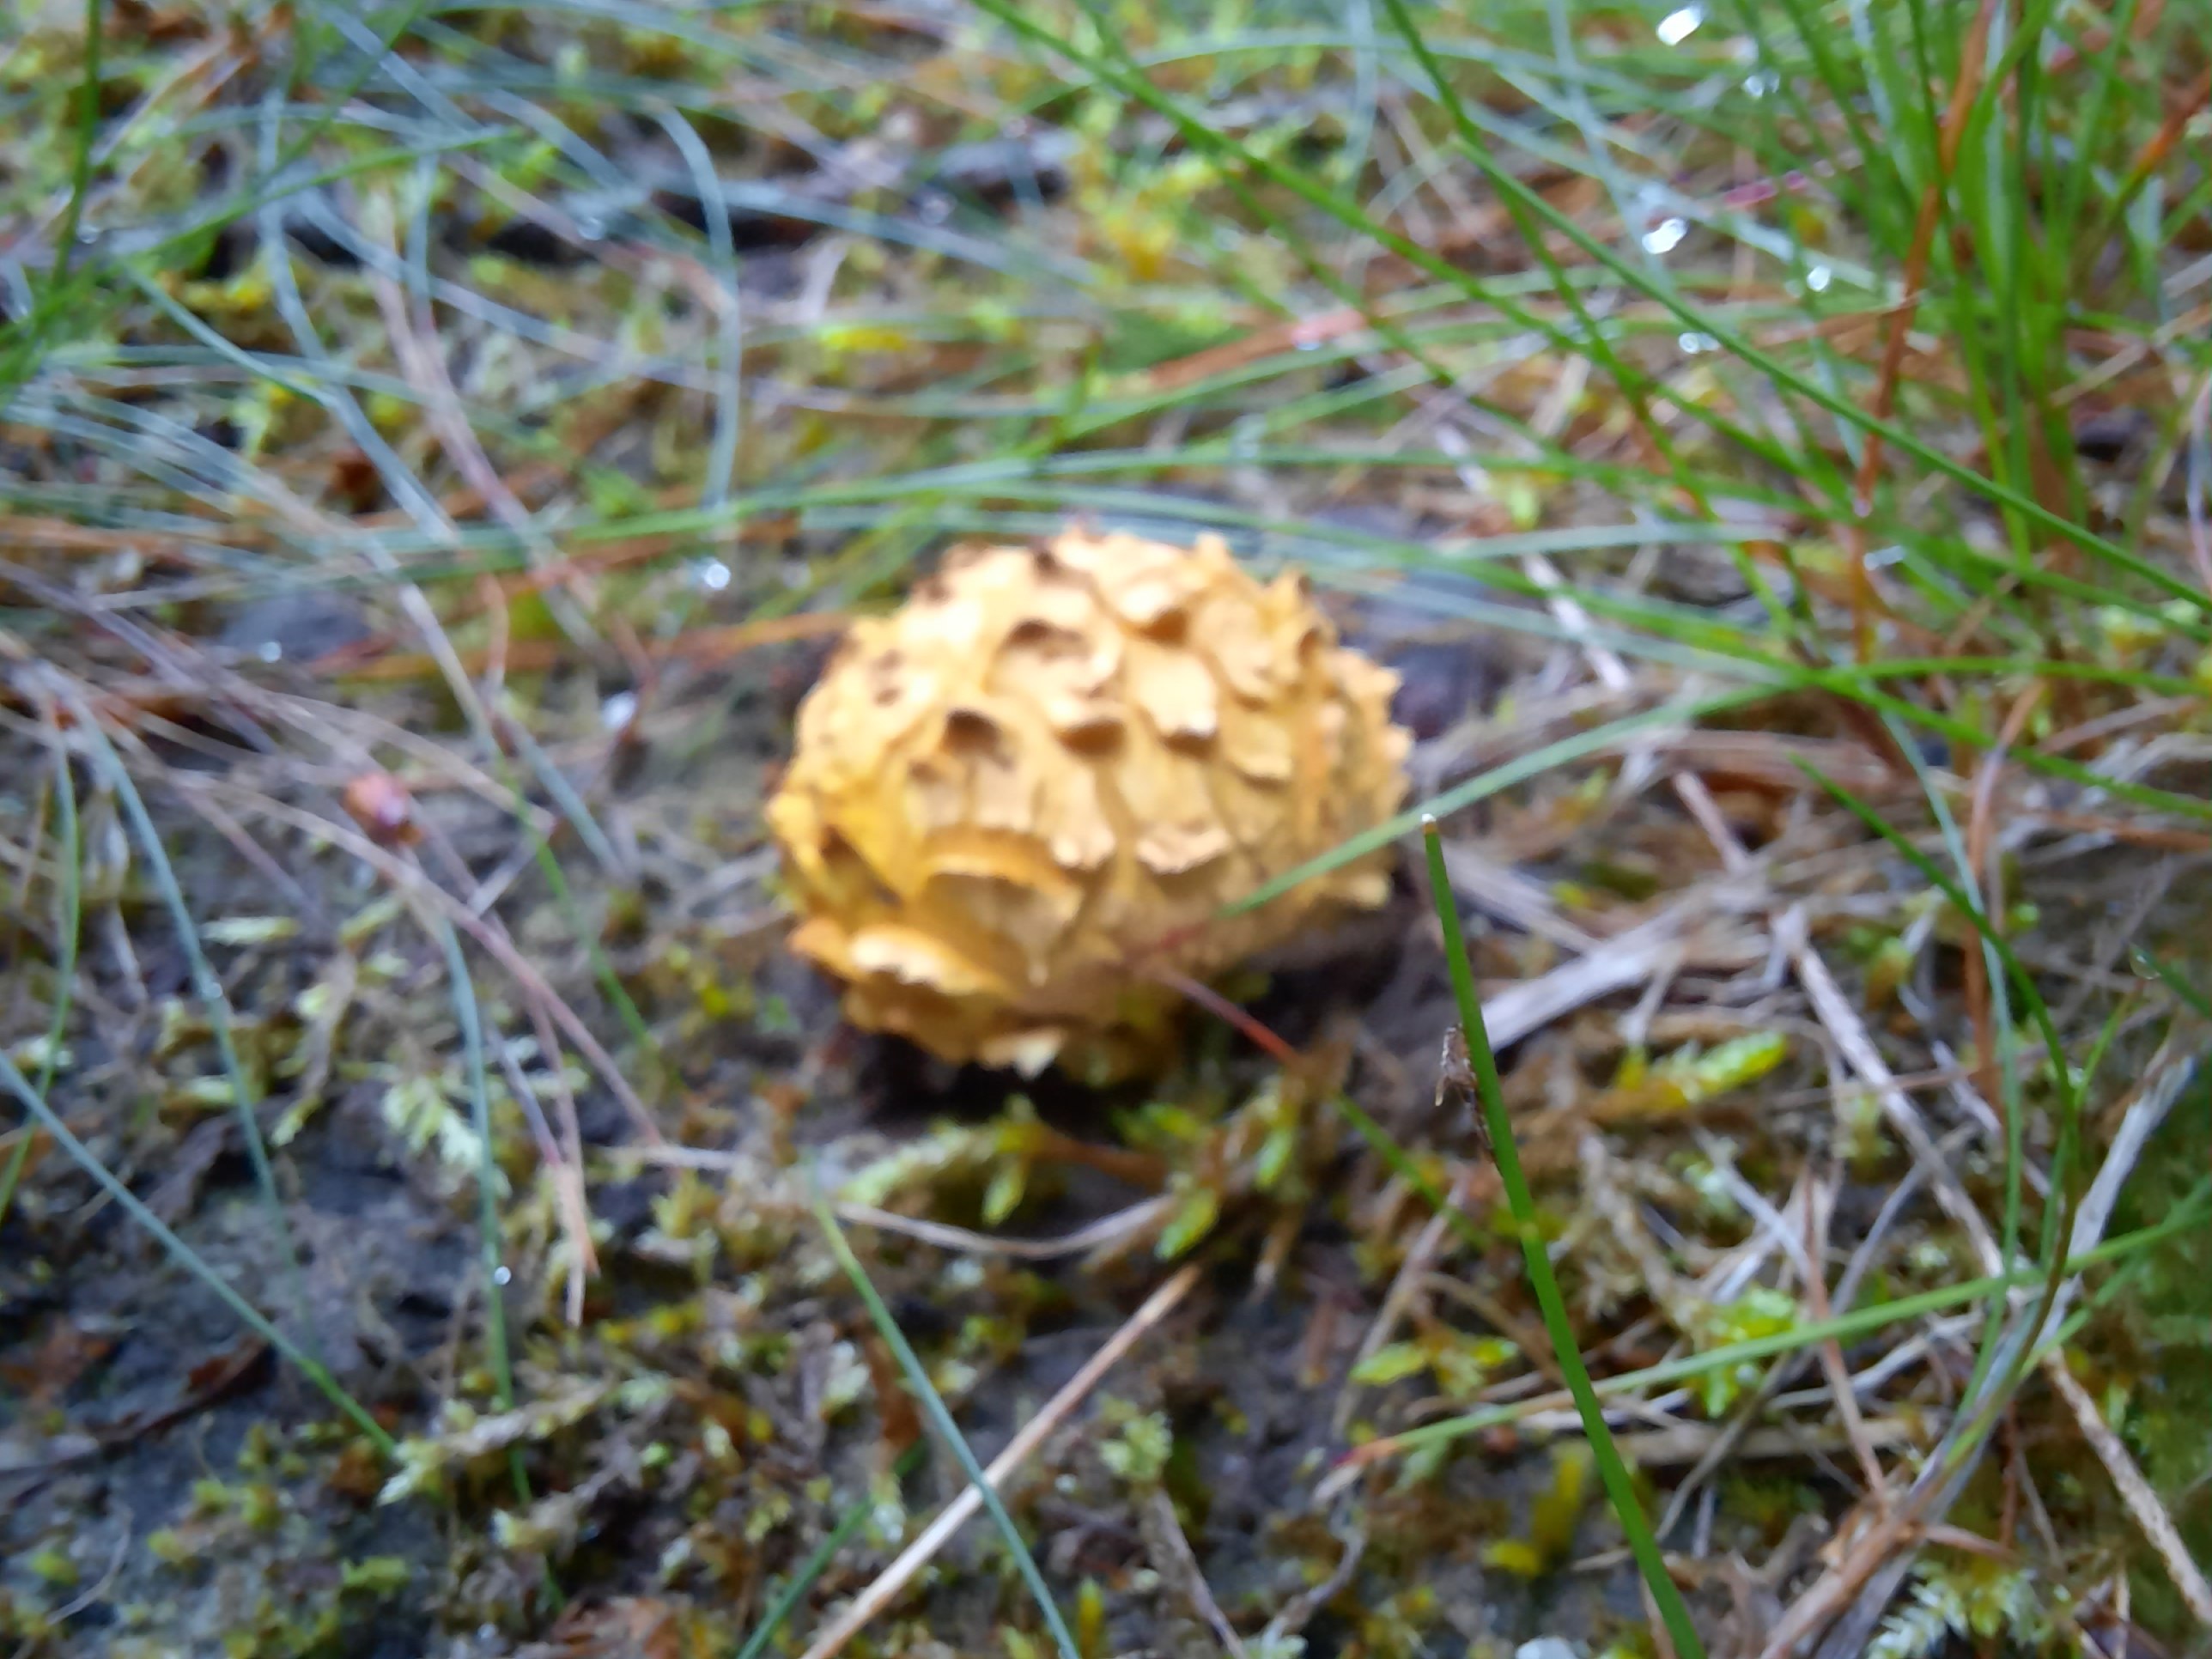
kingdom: Fungi
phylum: Basidiomycota
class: Agaricomycetes
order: Boletales
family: Sclerodermataceae
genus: Scleroderma
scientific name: Scleroderma citrinum
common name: almindelig bruskbold
